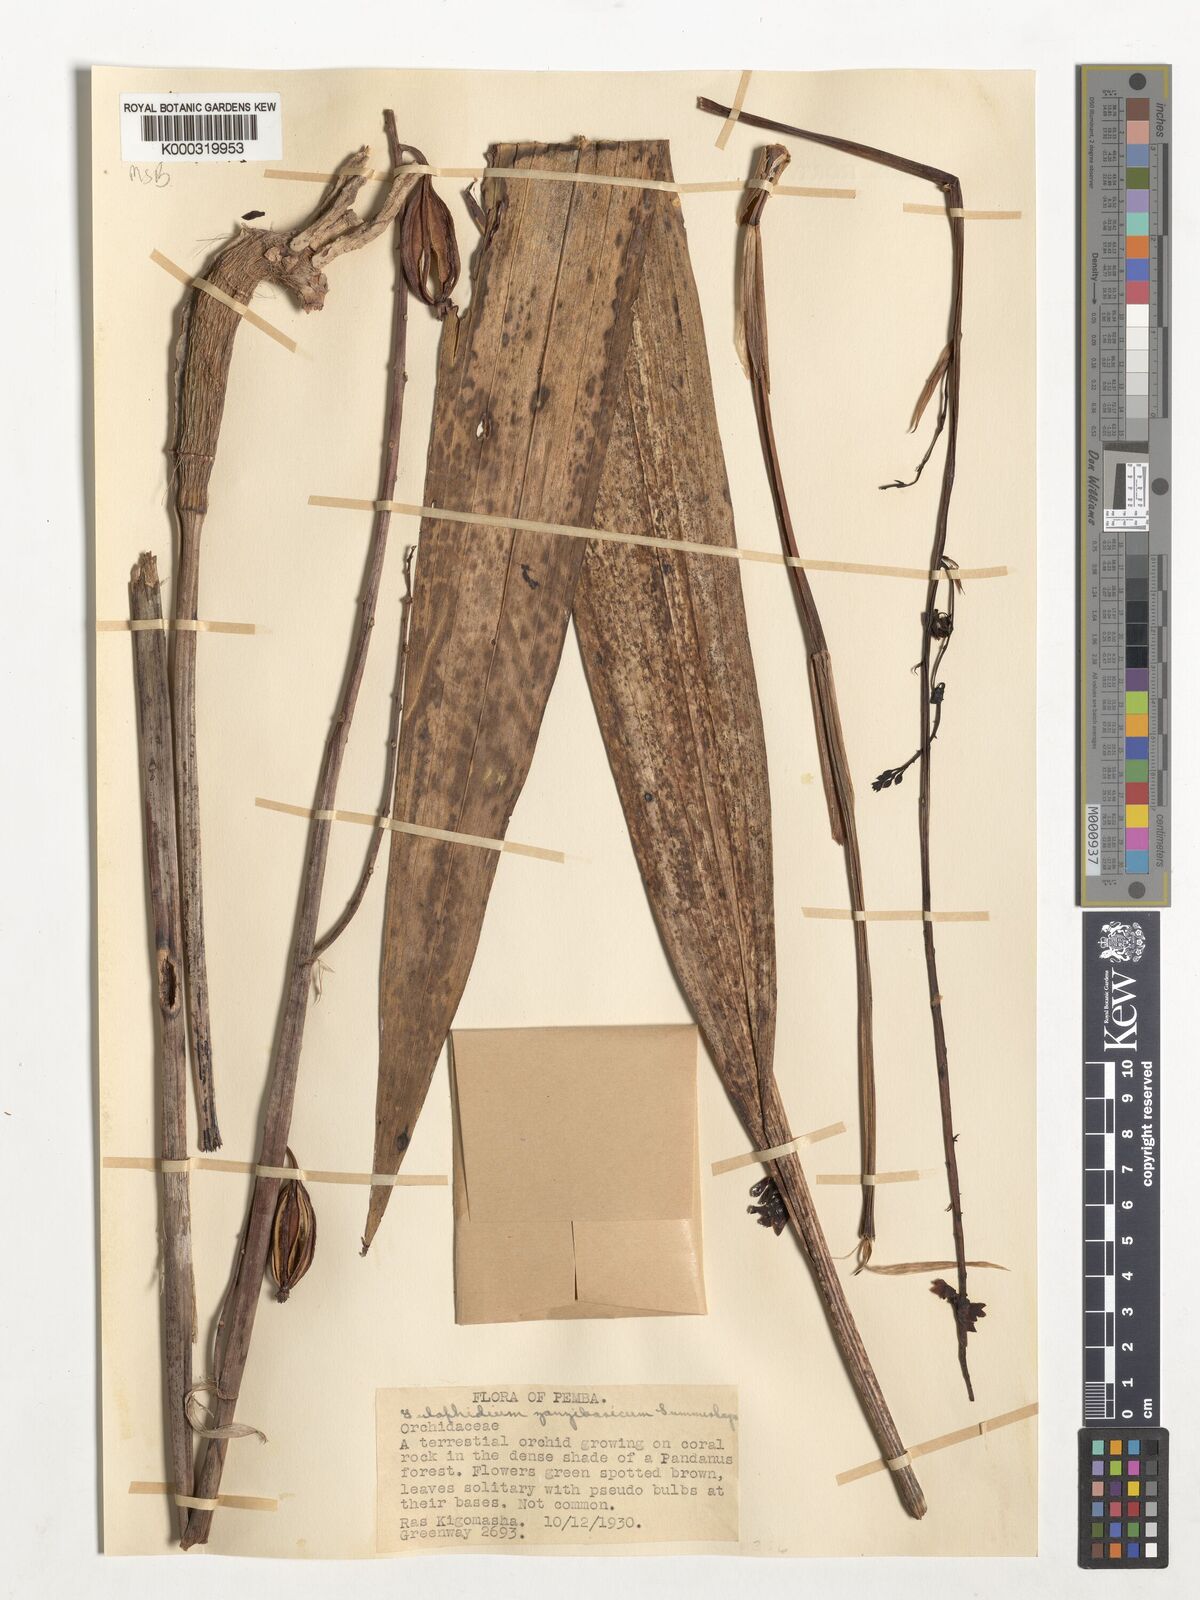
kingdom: Plantae
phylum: Tracheophyta
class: Liliopsida
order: Asparagales
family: Orchidaceae
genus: Eulophia
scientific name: Eulophia zanzibarica
